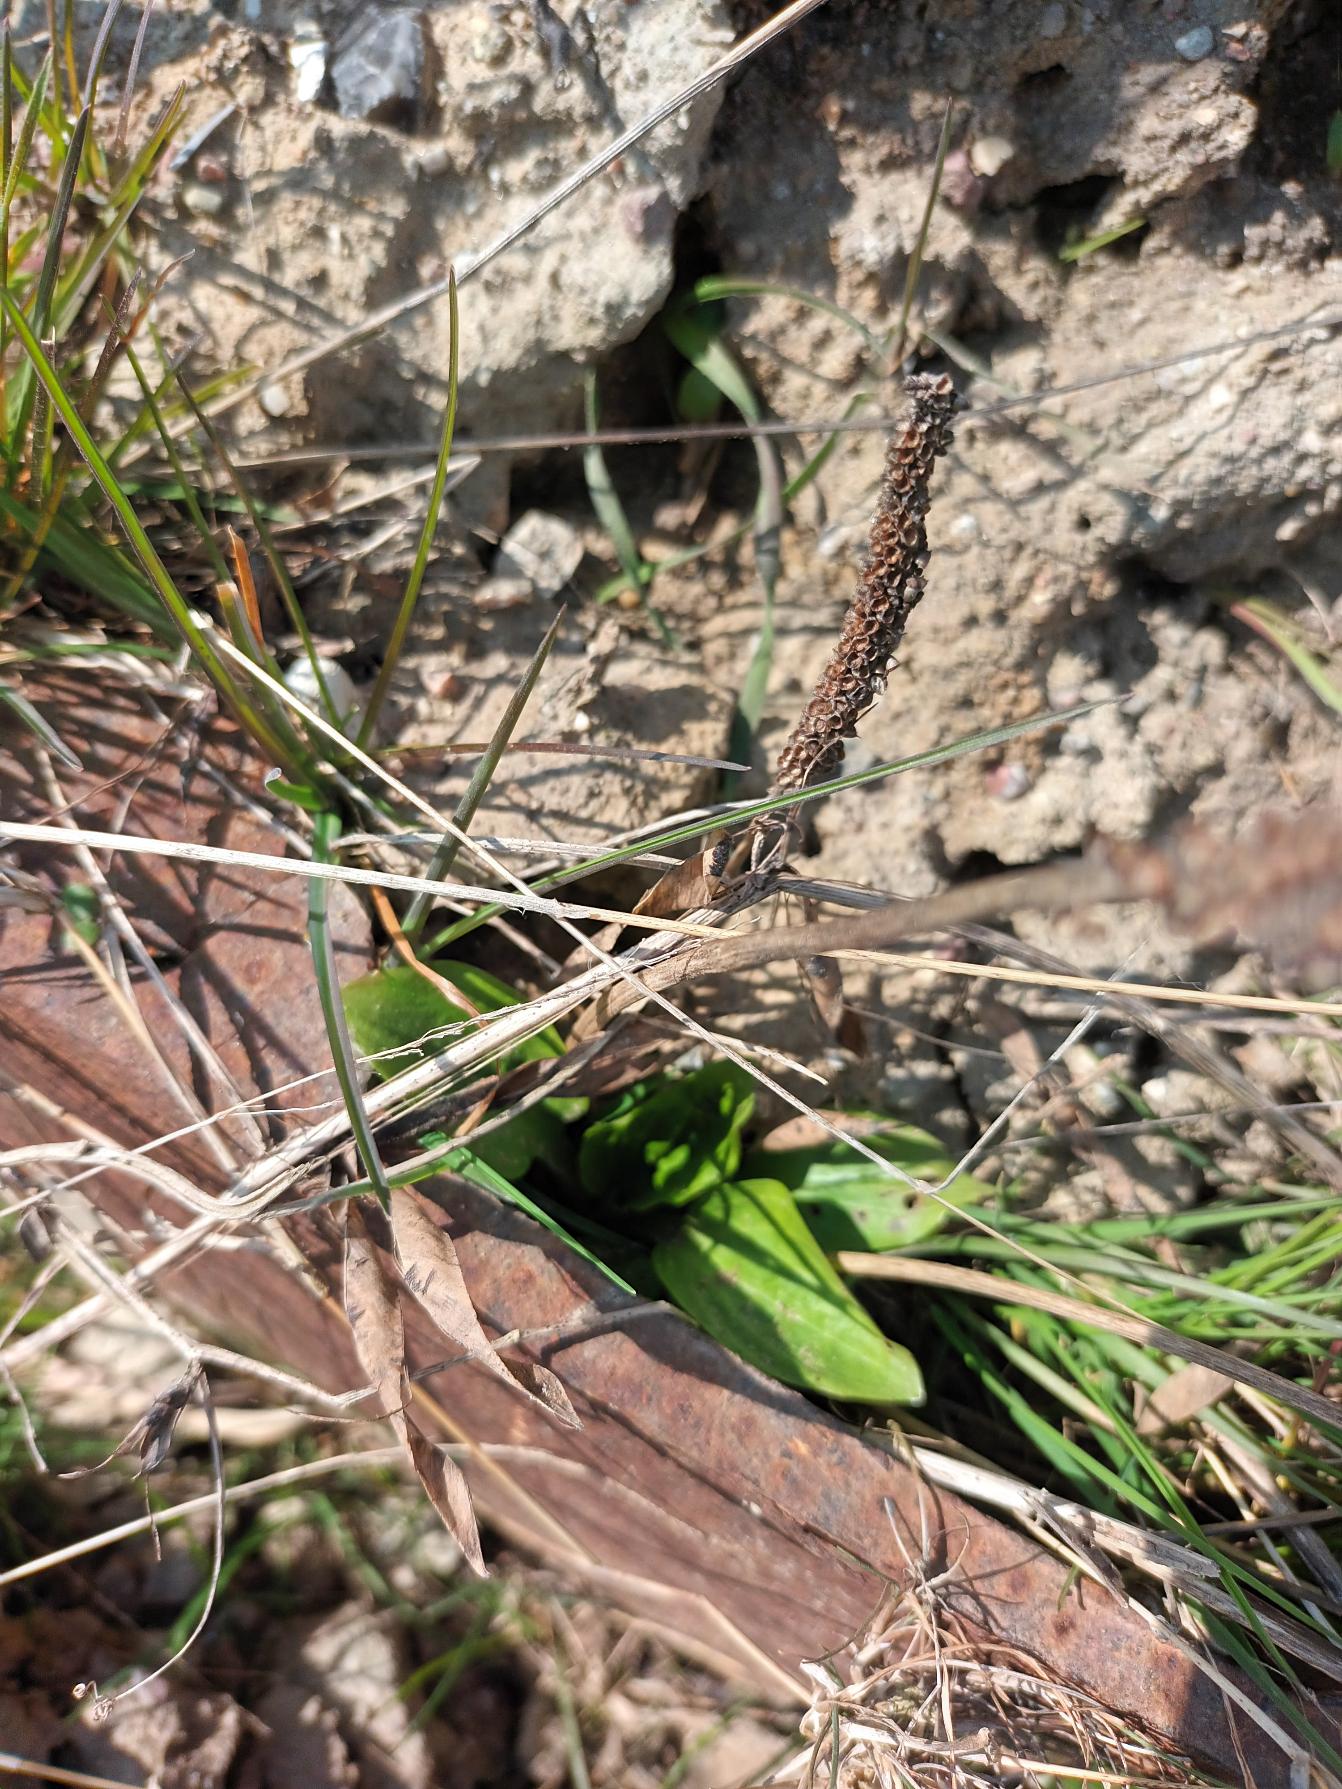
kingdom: Plantae
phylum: Tracheophyta
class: Magnoliopsida
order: Lamiales
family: Plantaginaceae
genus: Plantago
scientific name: Plantago major
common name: Glat vejbred
